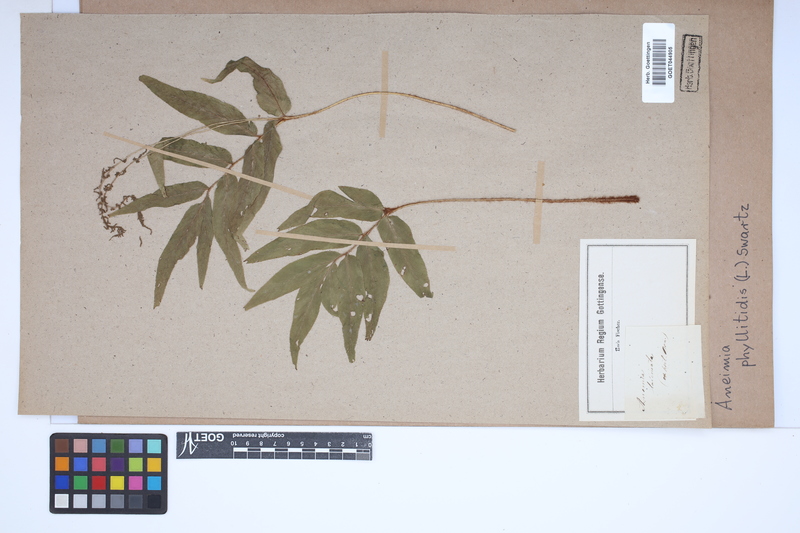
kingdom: Plantae
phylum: Tracheophyta
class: Polypodiopsida
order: Schizaeales
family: Anemiaceae
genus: Anemia
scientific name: Anemia phyllitidis
